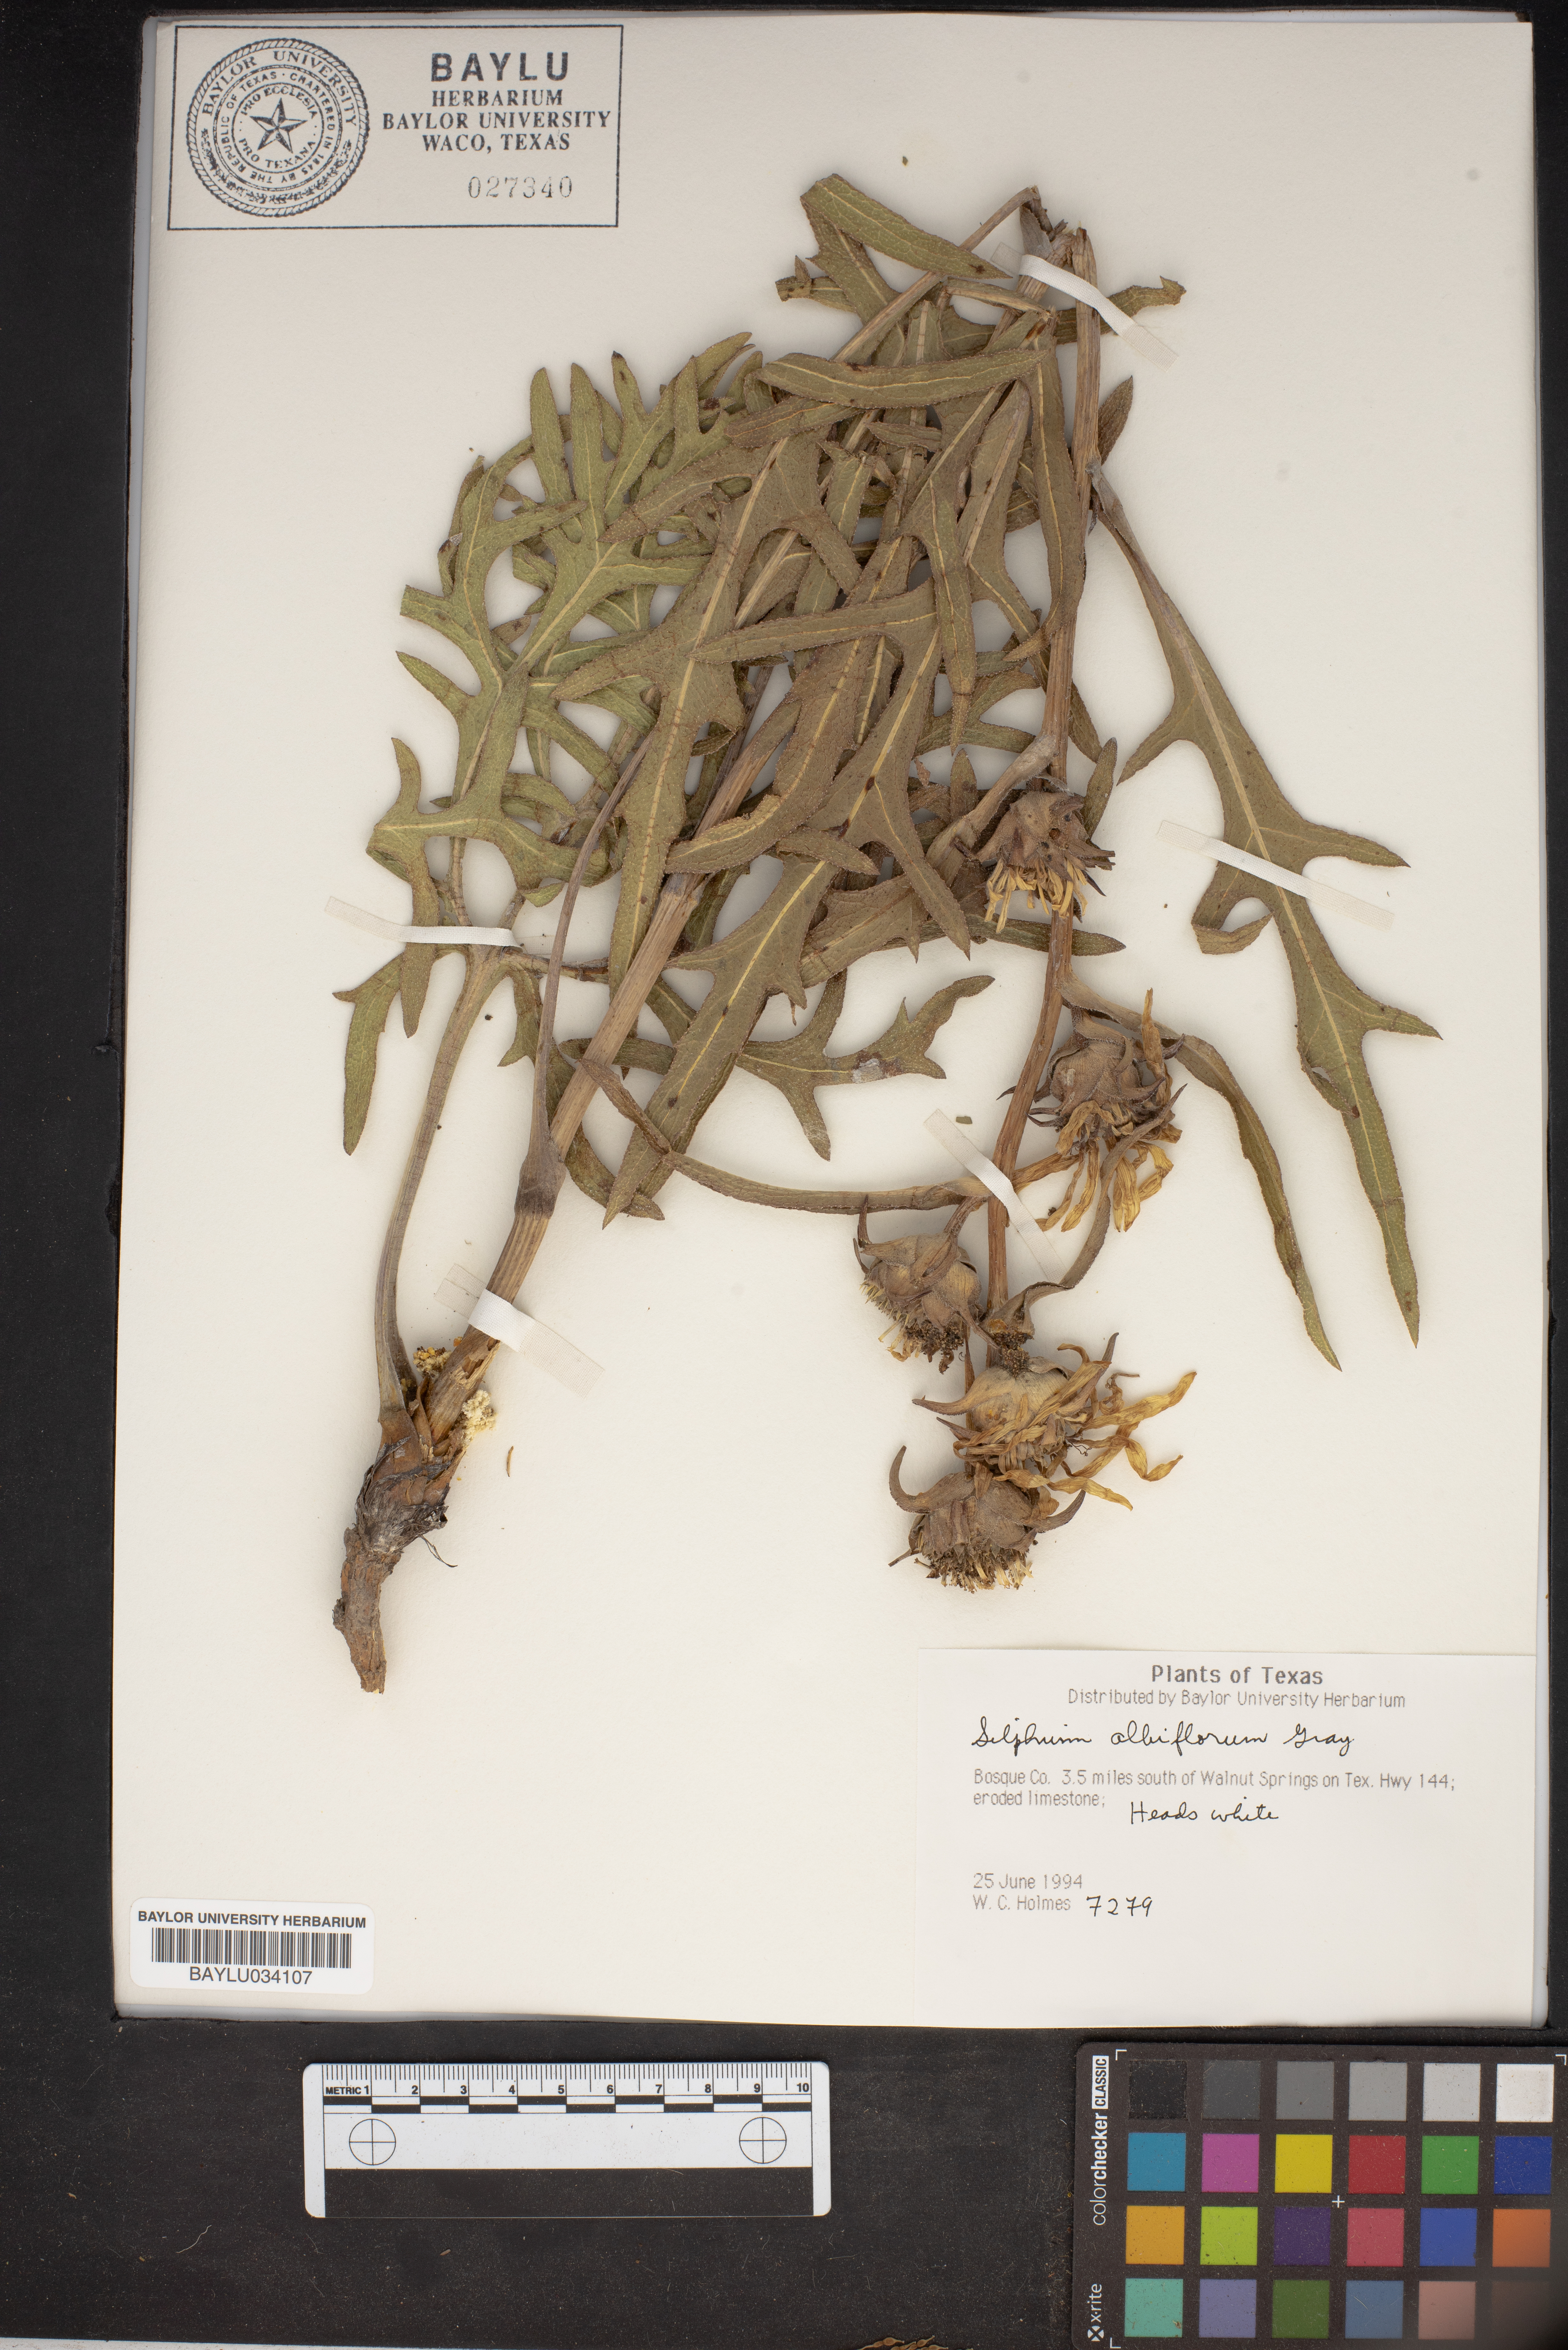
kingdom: Plantae
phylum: Tracheophyta
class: Magnoliopsida
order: Asterales
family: Asteraceae
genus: Silphium
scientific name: Silphium albiflorum
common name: White rosinweed
